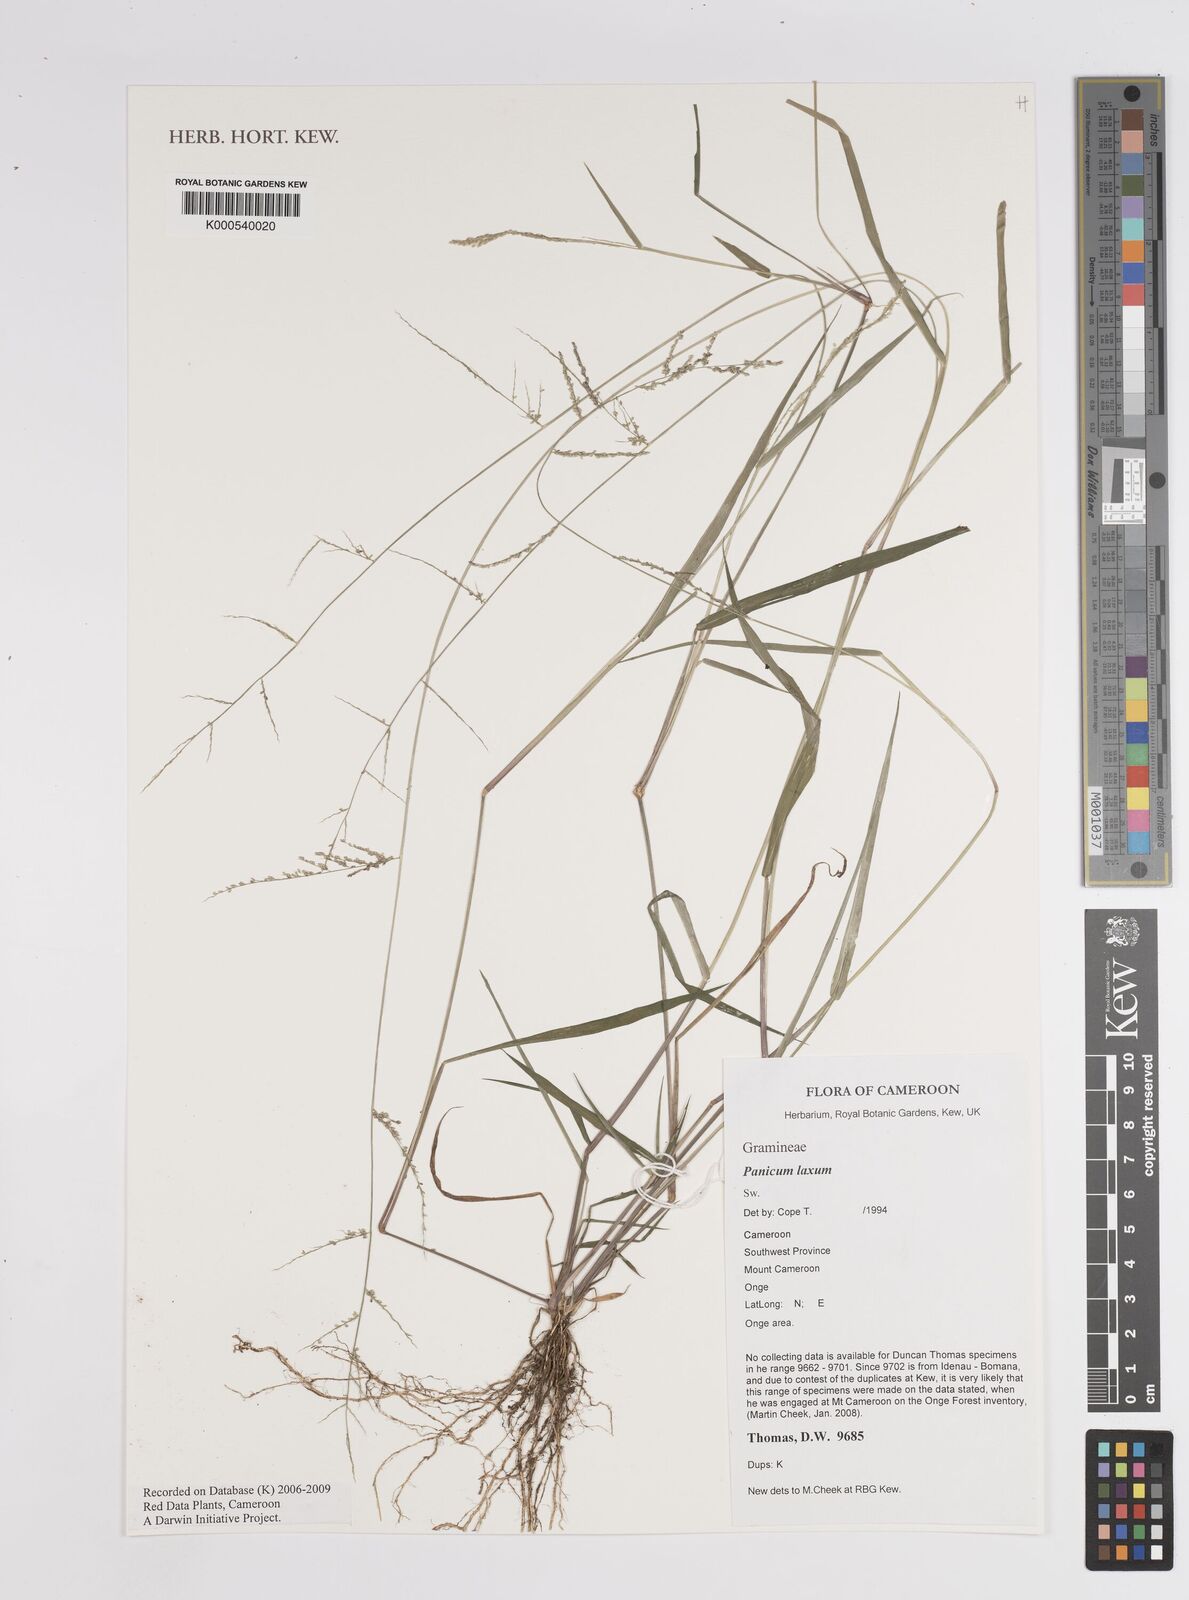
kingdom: Plantae
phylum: Tracheophyta
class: Liliopsida
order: Poales
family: Poaceae
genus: Steinchisma
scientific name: Steinchisma laxum
